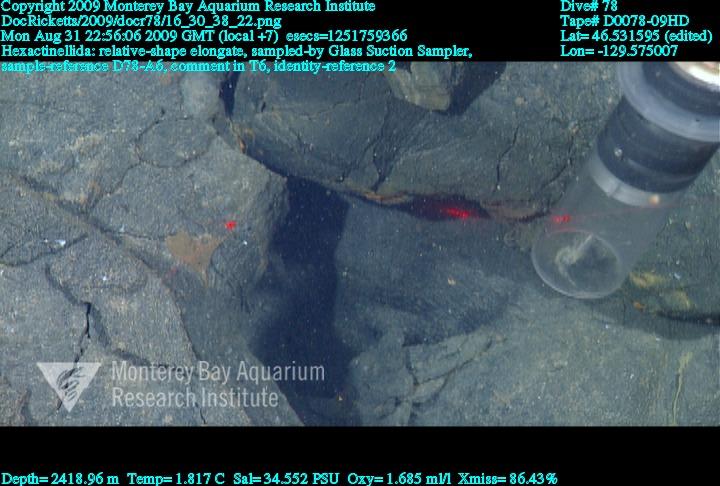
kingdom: Animalia
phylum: Porifera
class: Hexactinellida
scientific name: Hexactinellida
